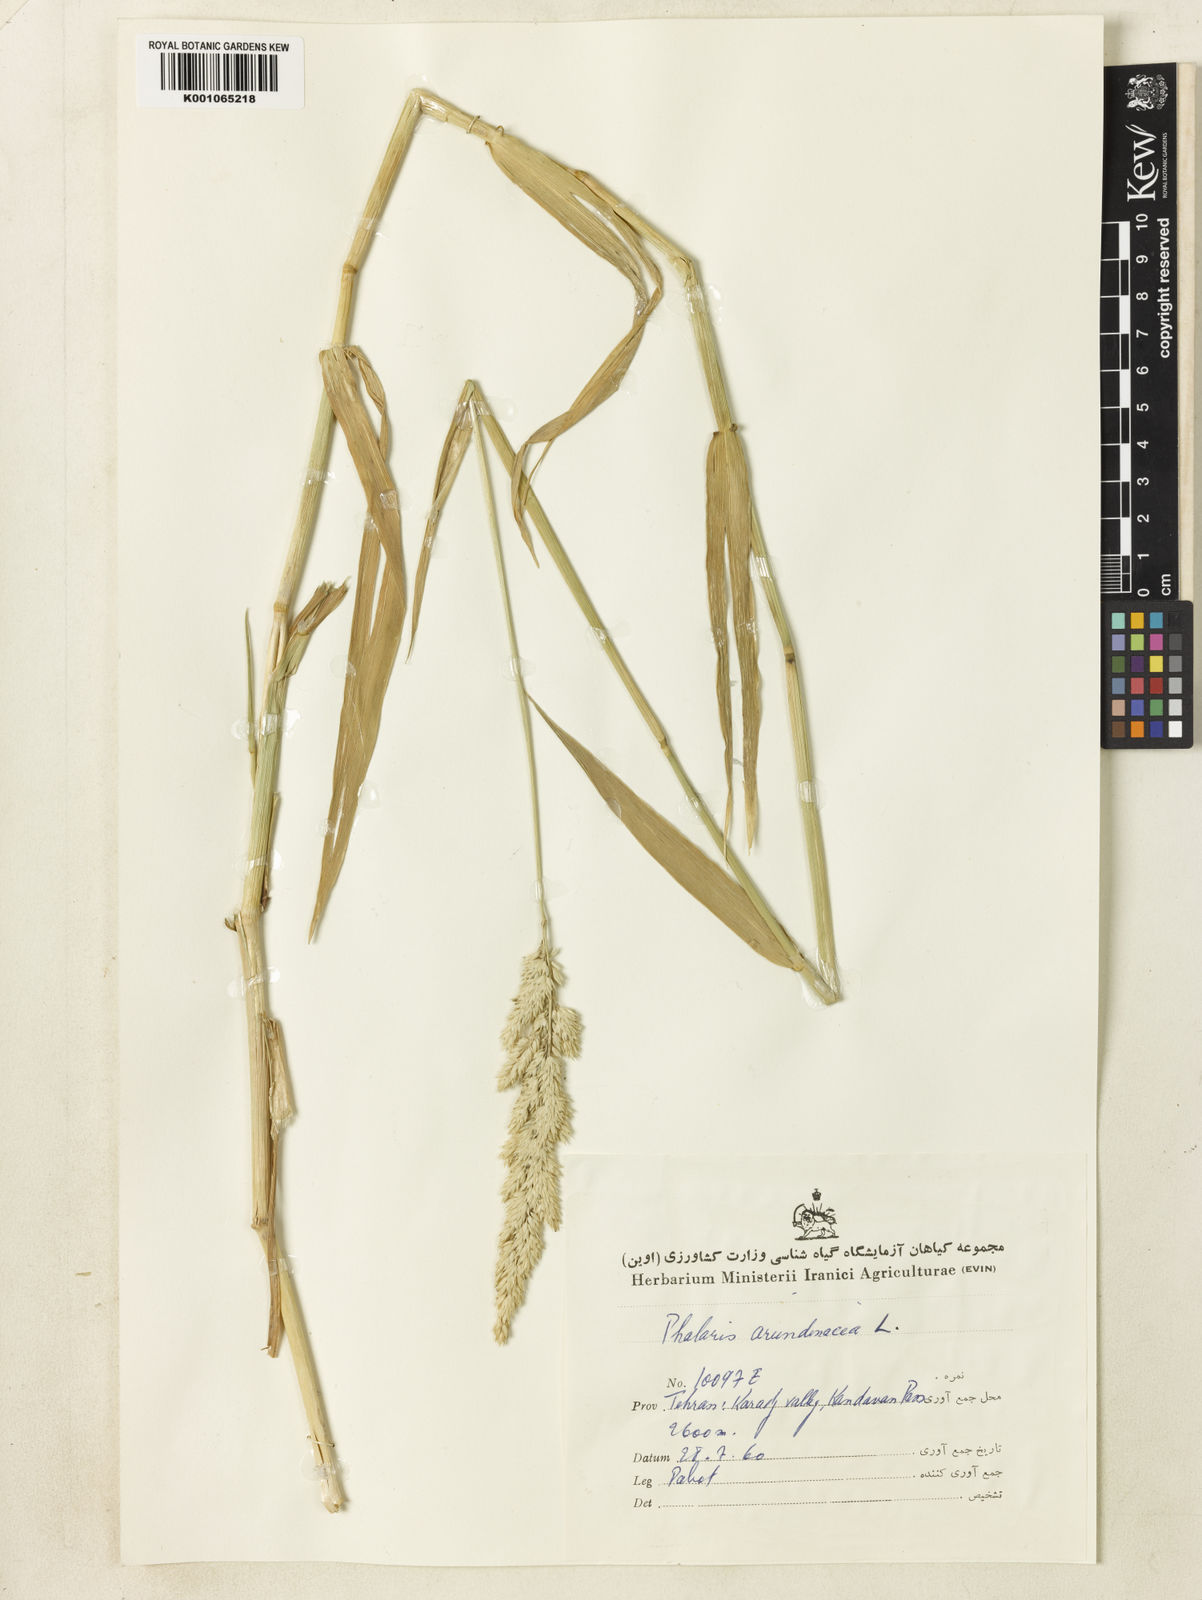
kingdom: Plantae
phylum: Tracheophyta
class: Liliopsida
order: Poales
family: Poaceae
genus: Phalaris
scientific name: Phalaris arundinacea
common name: Reed canary-grass
